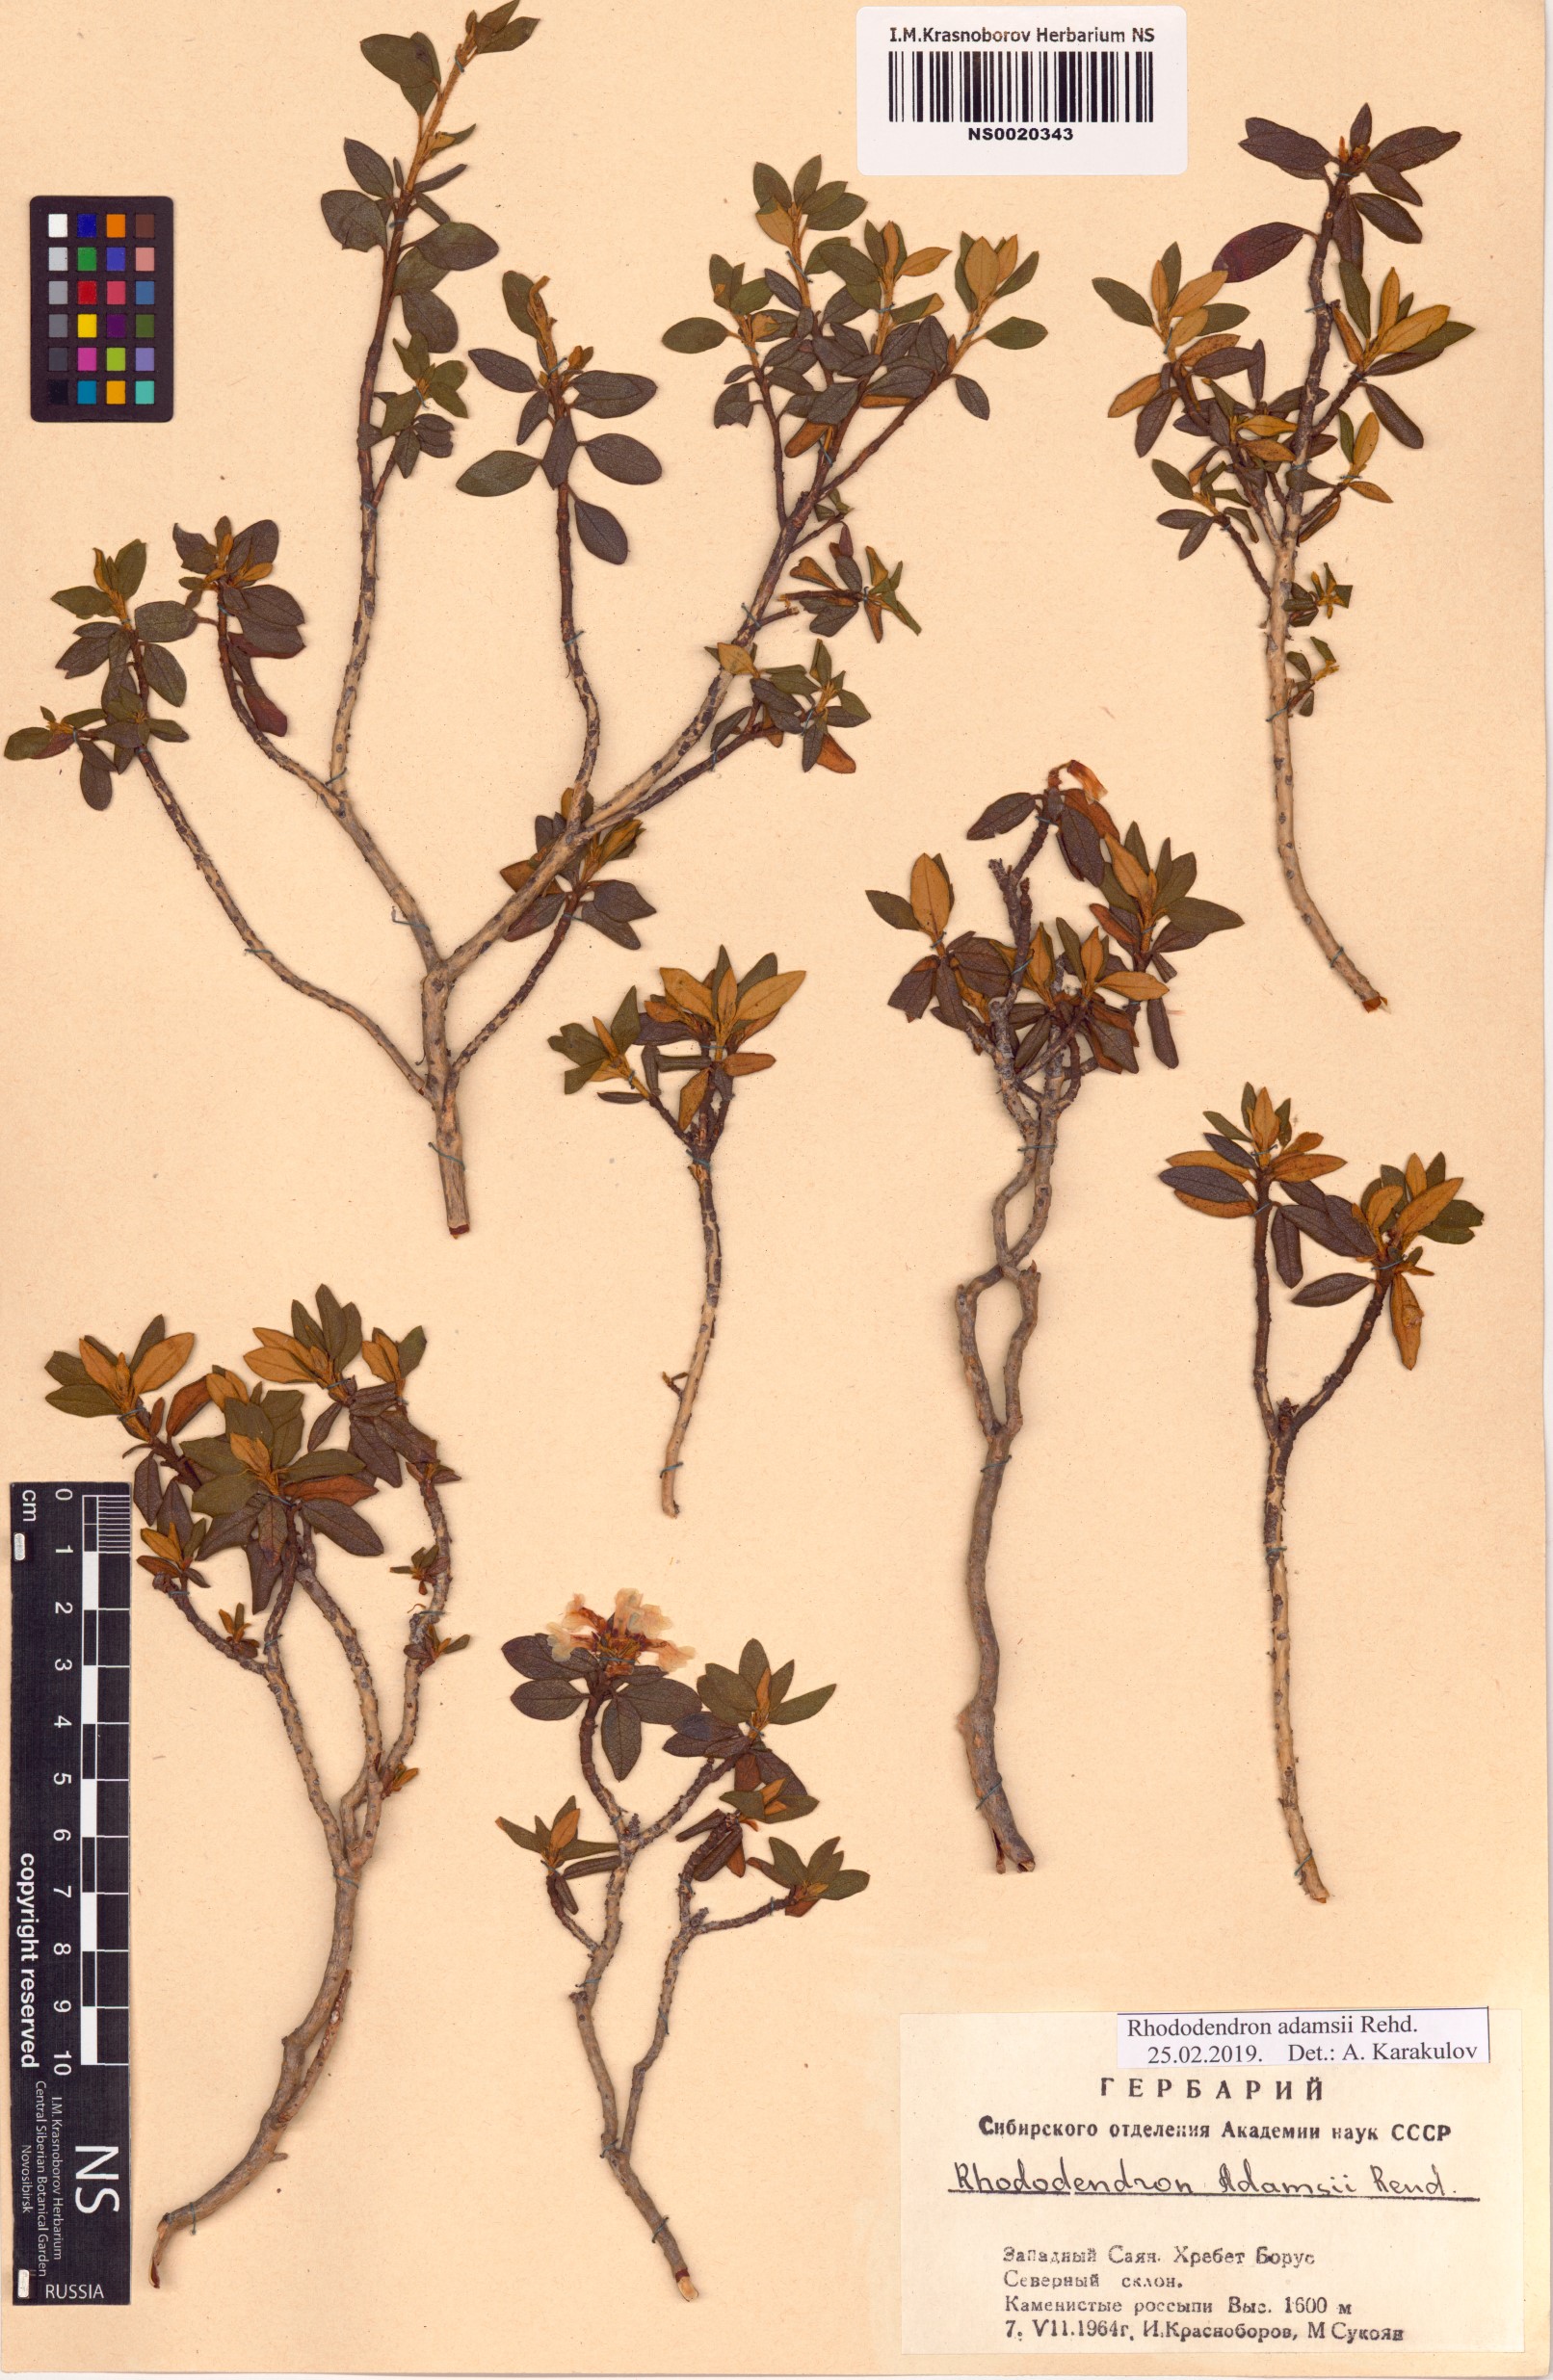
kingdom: Plantae
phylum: Tracheophyta
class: Magnoliopsida
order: Ericales
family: Ericaceae
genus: Rhododendron
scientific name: Rhododendron adamsii
